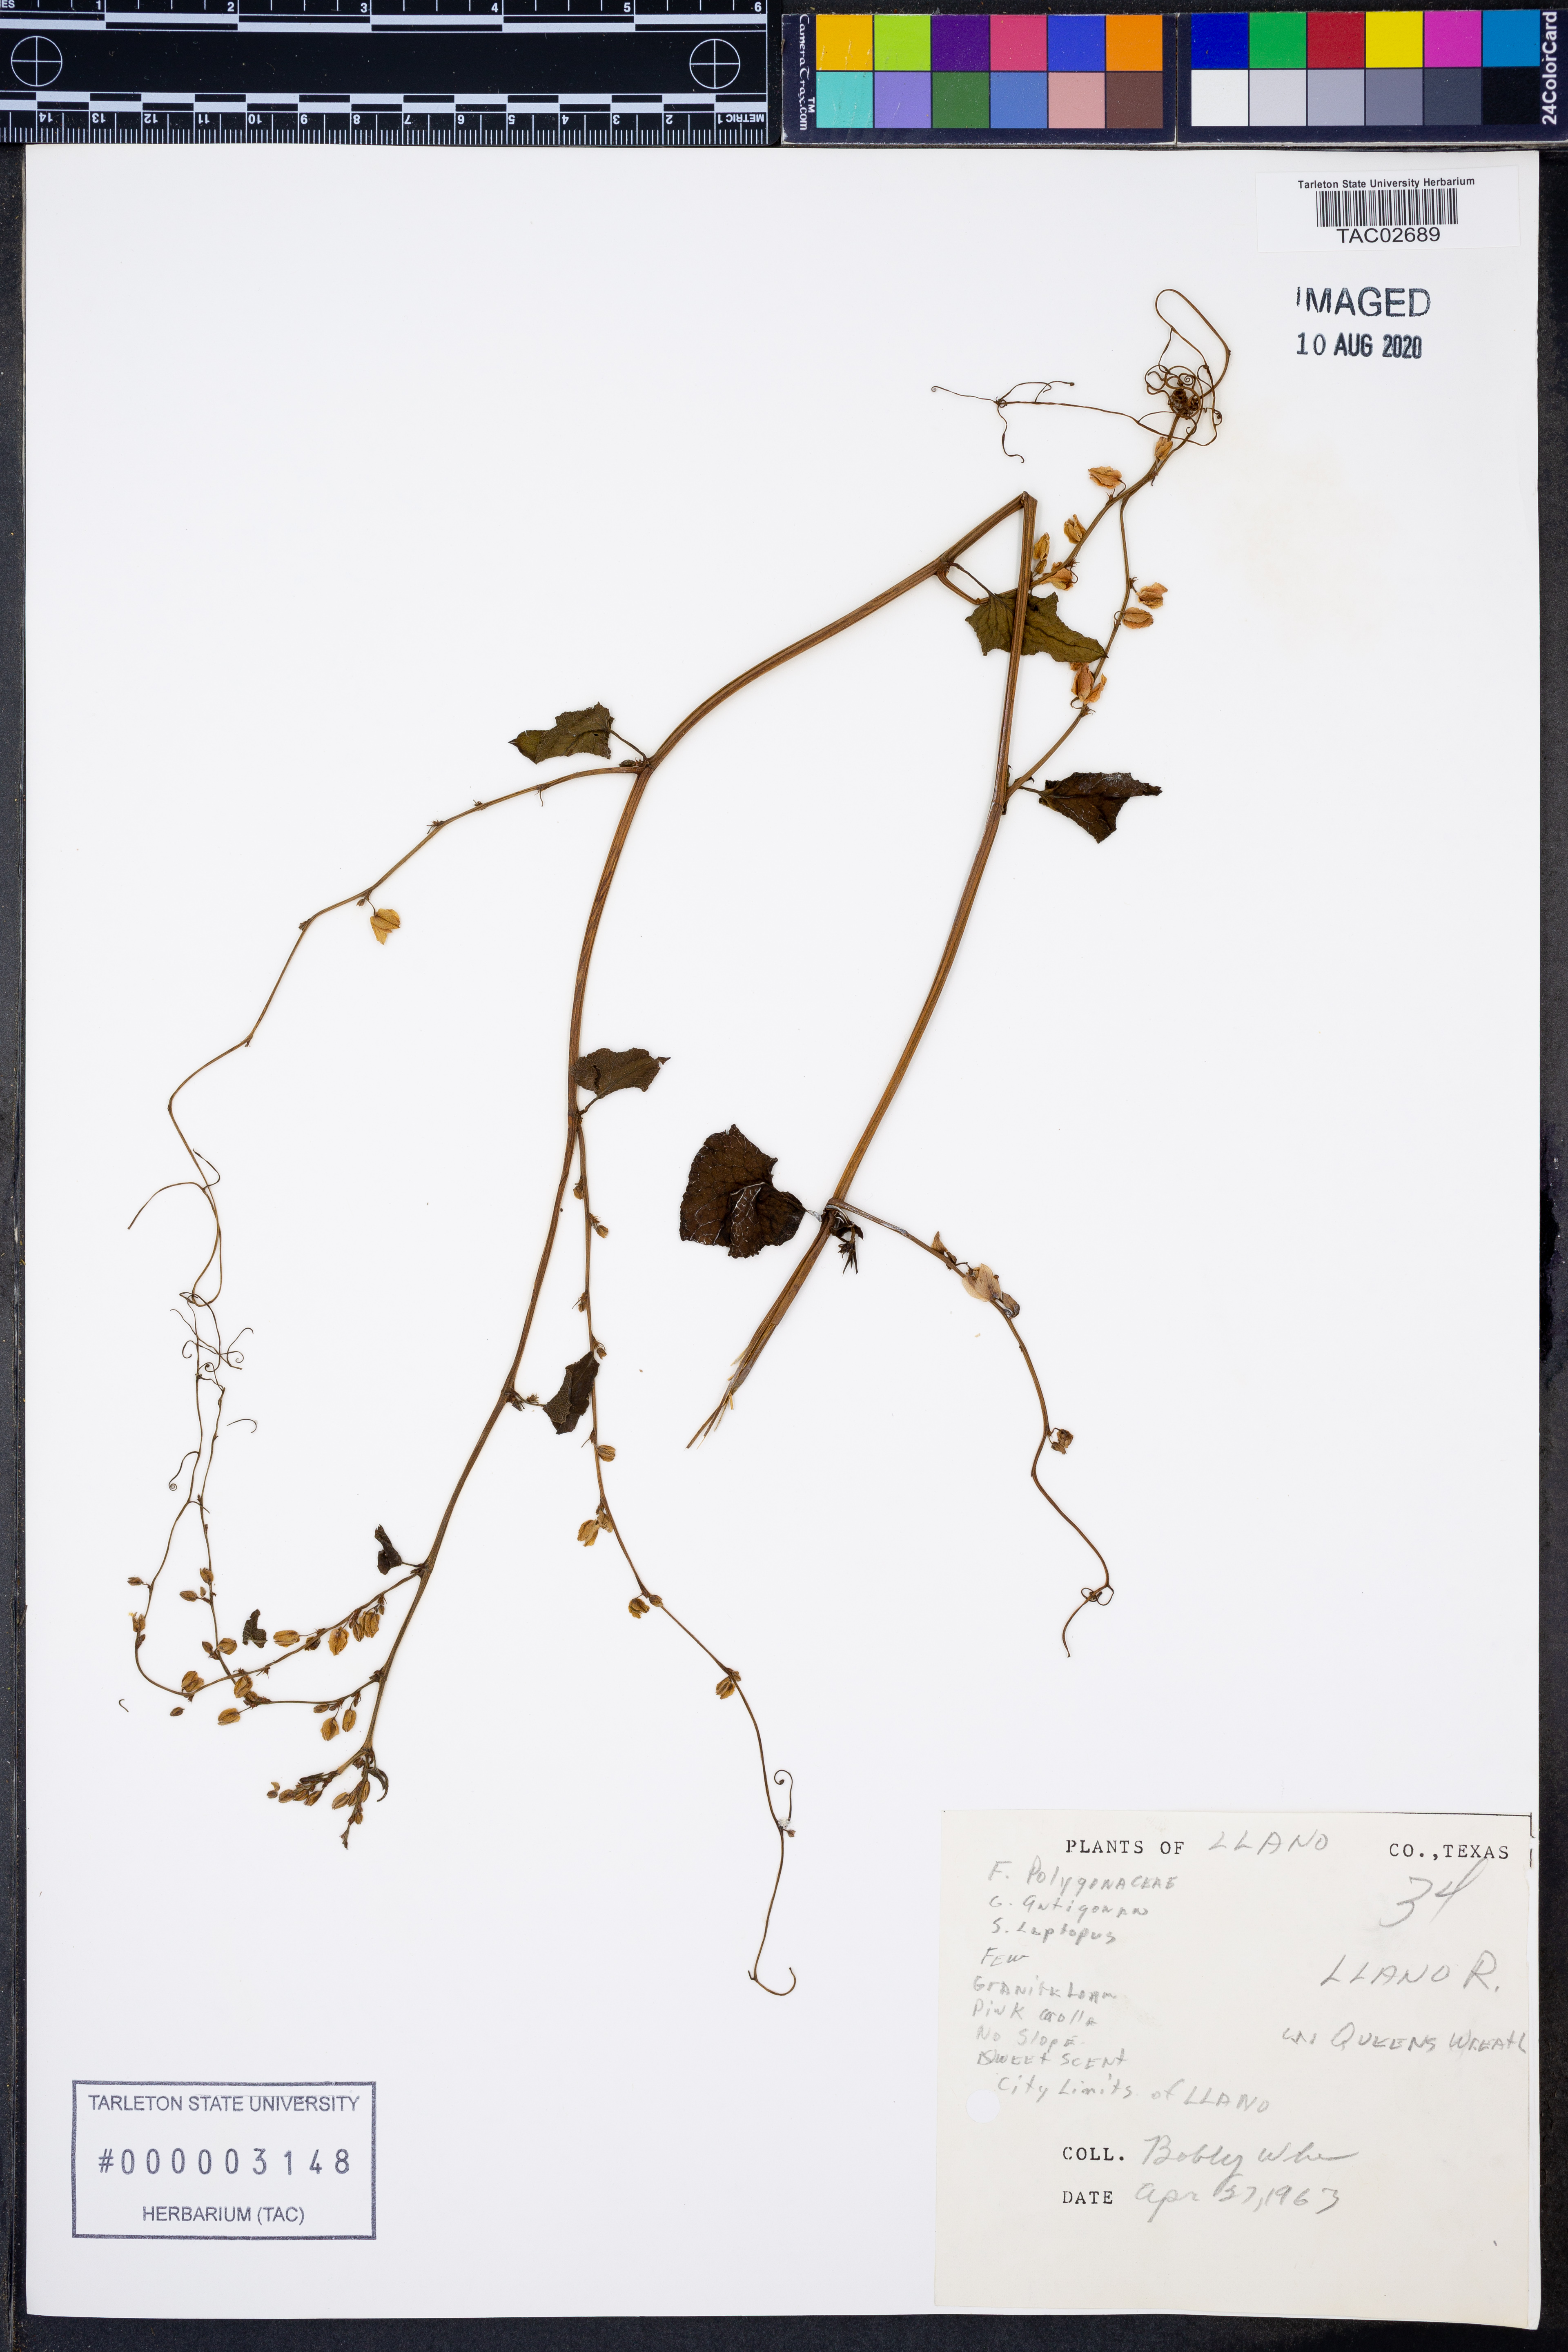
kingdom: Plantae
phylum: Tracheophyta
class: Magnoliopsida
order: Caryophyllales
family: Polygonaceae
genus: Antigonon
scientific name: Antigonon leptopus
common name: Coral vine
